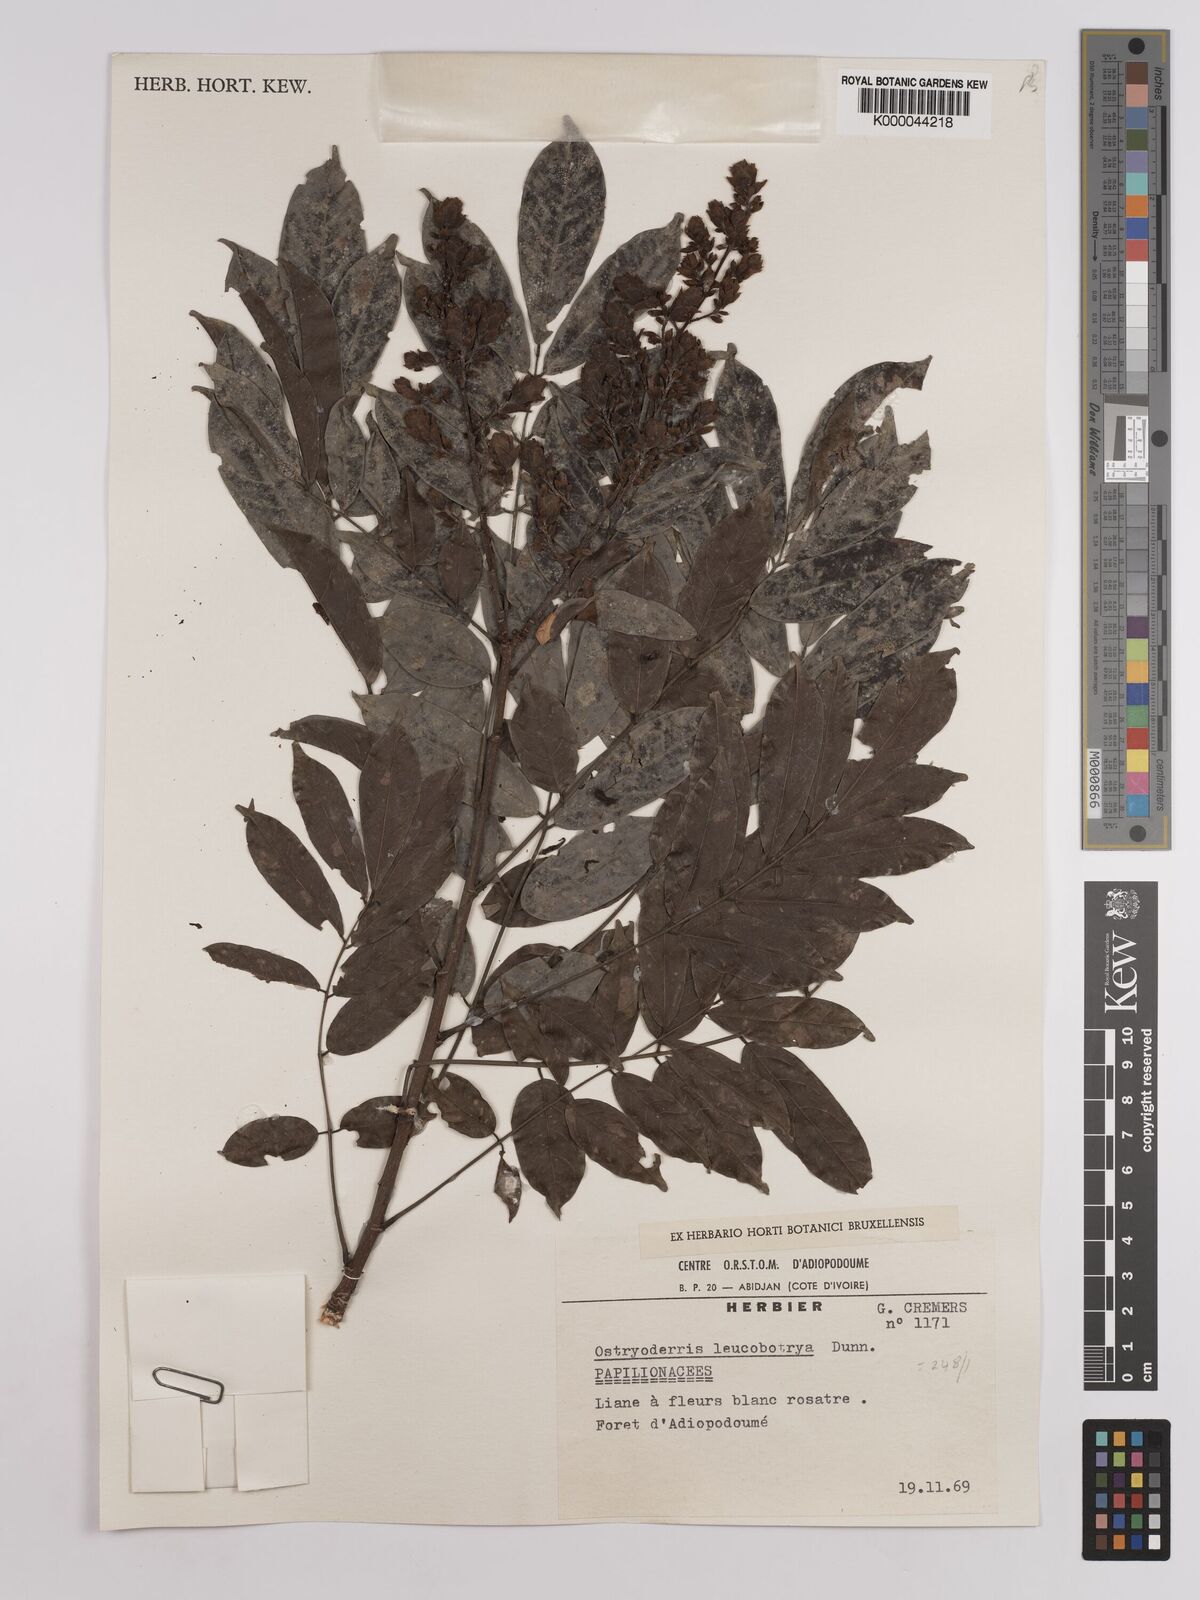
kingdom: Plantae
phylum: Tracheophyta
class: Magnoliopsida
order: Fabales
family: Fabaceae
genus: Aganope
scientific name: Aganope leucobotrya
